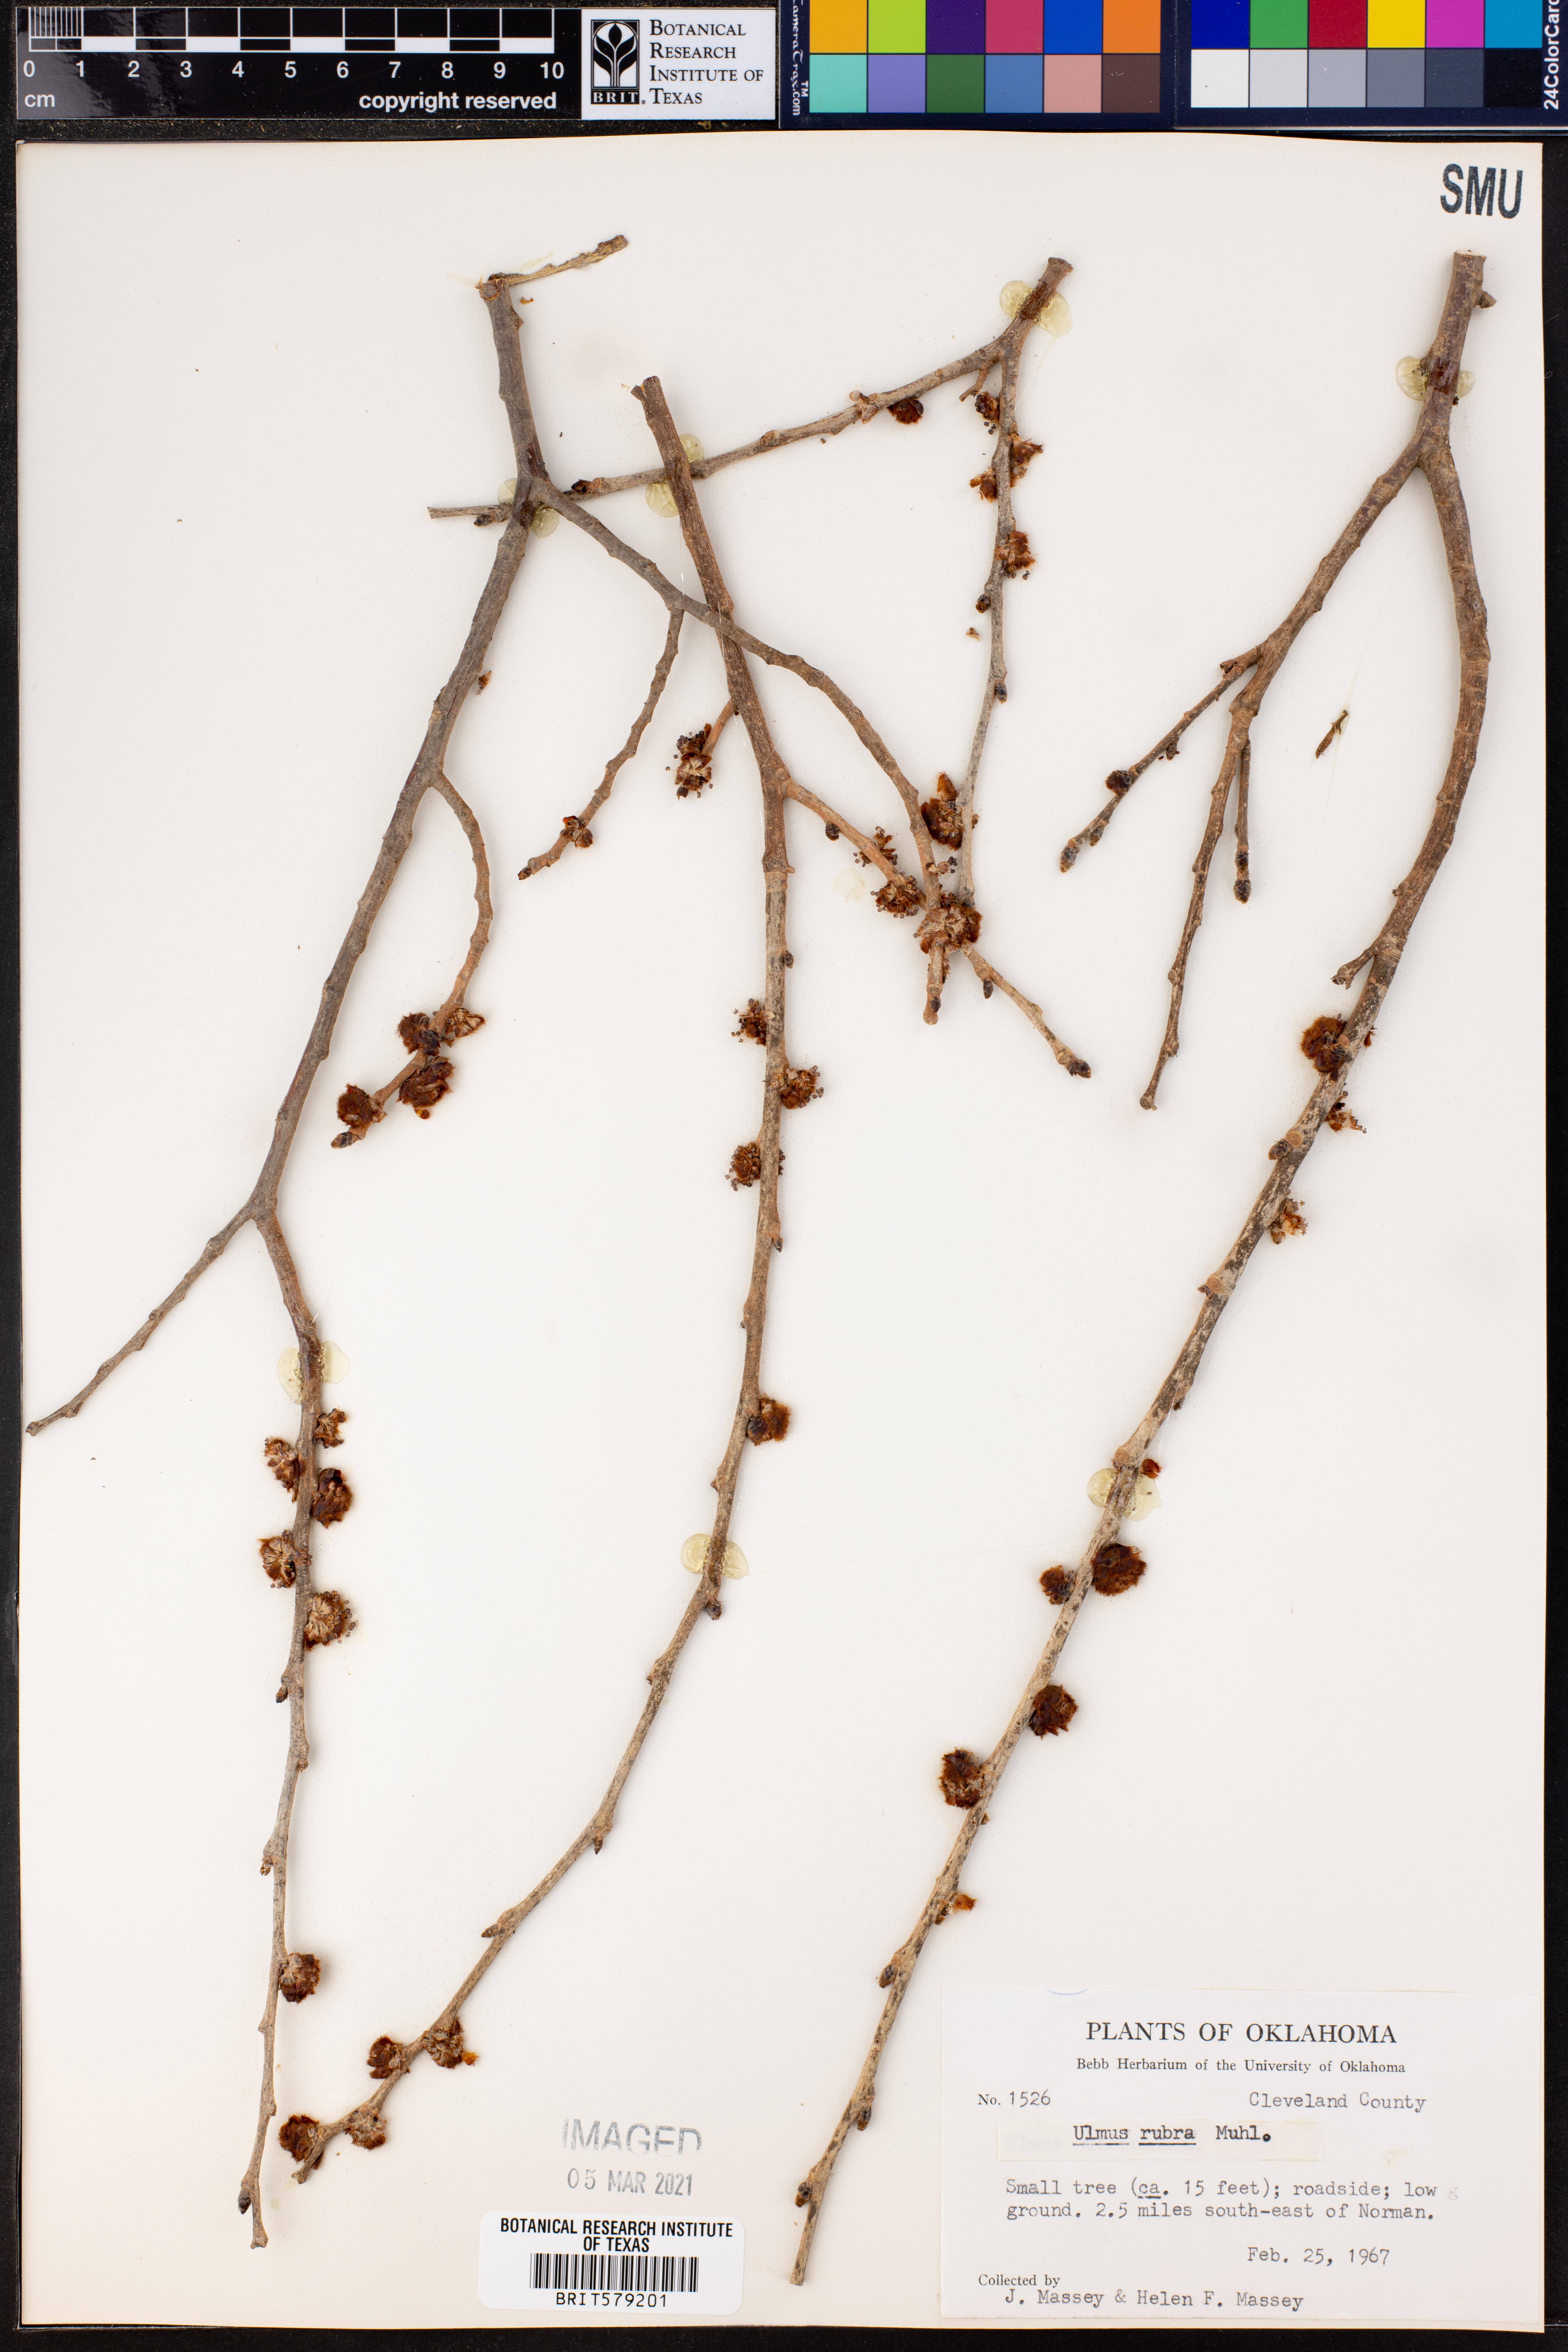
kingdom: Plantae
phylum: Tracheophyta
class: Magnoliopsida
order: Rosales
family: Ulmaceae
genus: Ulmus
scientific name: Ulmus rubra
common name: Slippery elm
